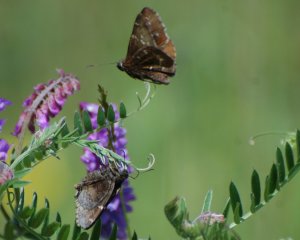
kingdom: Animalia
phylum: Arthropoda
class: Insecta
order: Lepidoptera
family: Hesperiidae
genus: Autochton
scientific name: Autochton
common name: Northern Cloudywing
